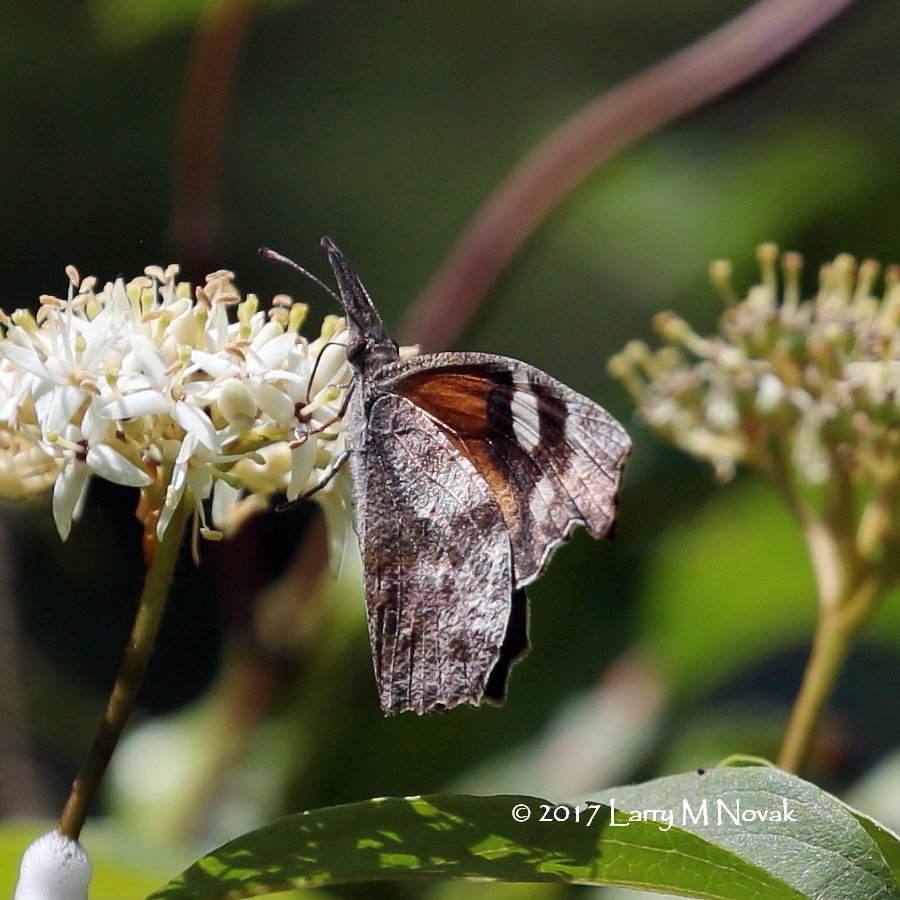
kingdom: Animalia
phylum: Arthropoda
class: Insecta
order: Lepidoptera
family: Nymphalidae
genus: Libytheana
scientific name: Libytheana carinenta
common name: American Snout
